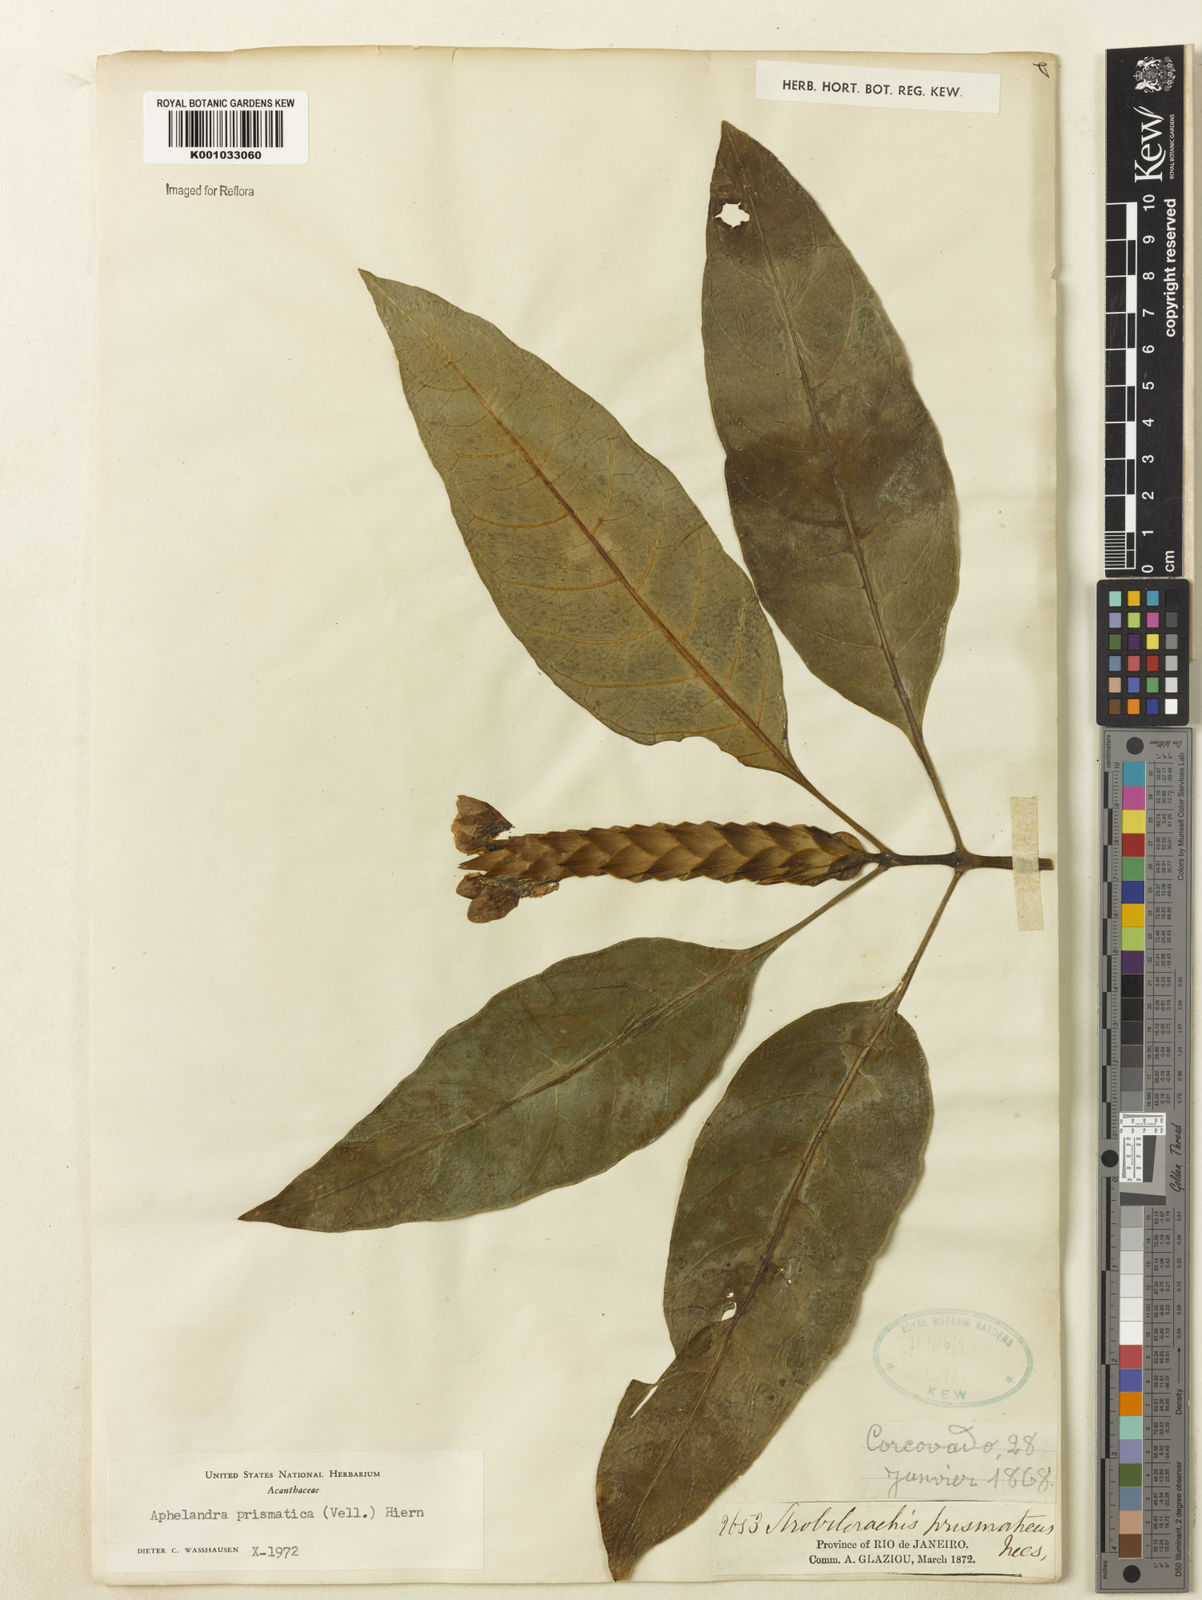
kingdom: Plantae
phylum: Tracheophyta
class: Magnoliopsida
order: Lamiales
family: Acanthaceae
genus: Aphelandra
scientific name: Aphelandra prismatica
